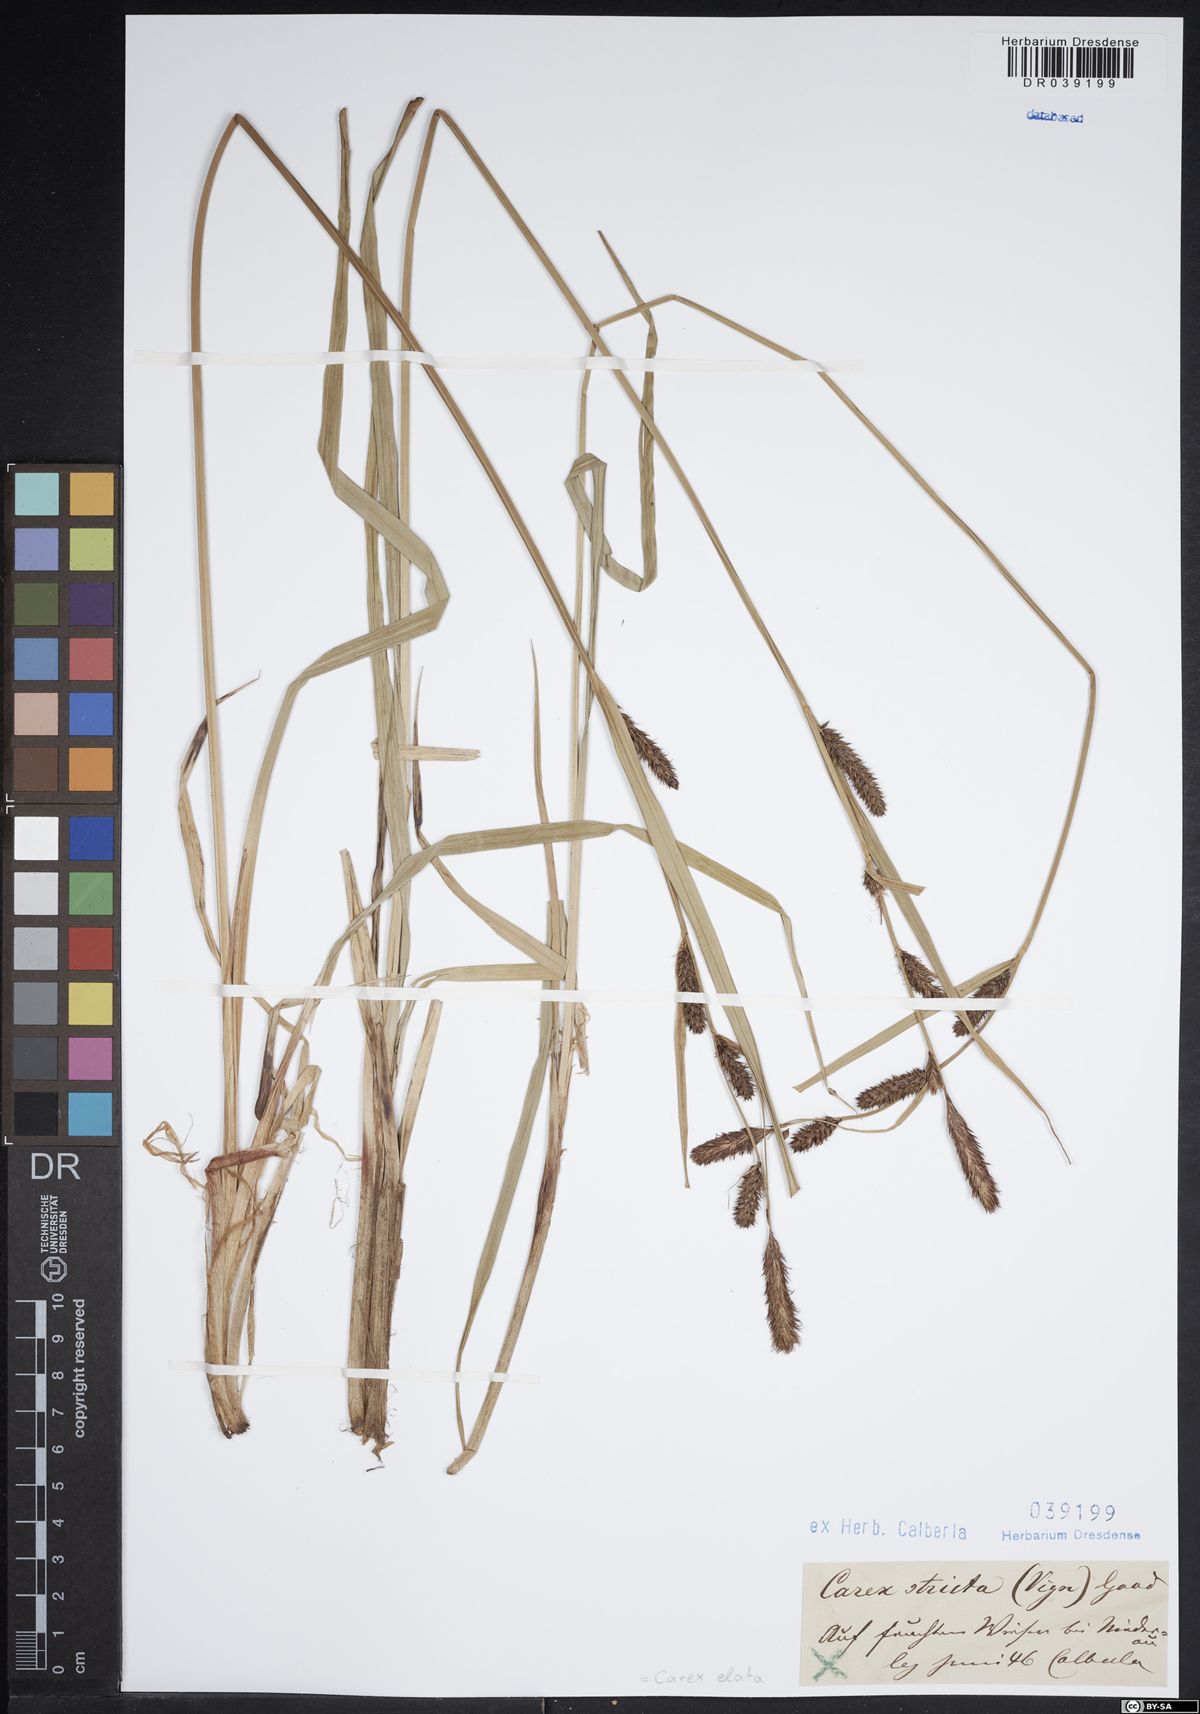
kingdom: Plantae
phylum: Tracheophyta
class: Liliopsida
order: Poales
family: Cyperaceae
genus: Carex
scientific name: Carex elata
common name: Tufted sedge
